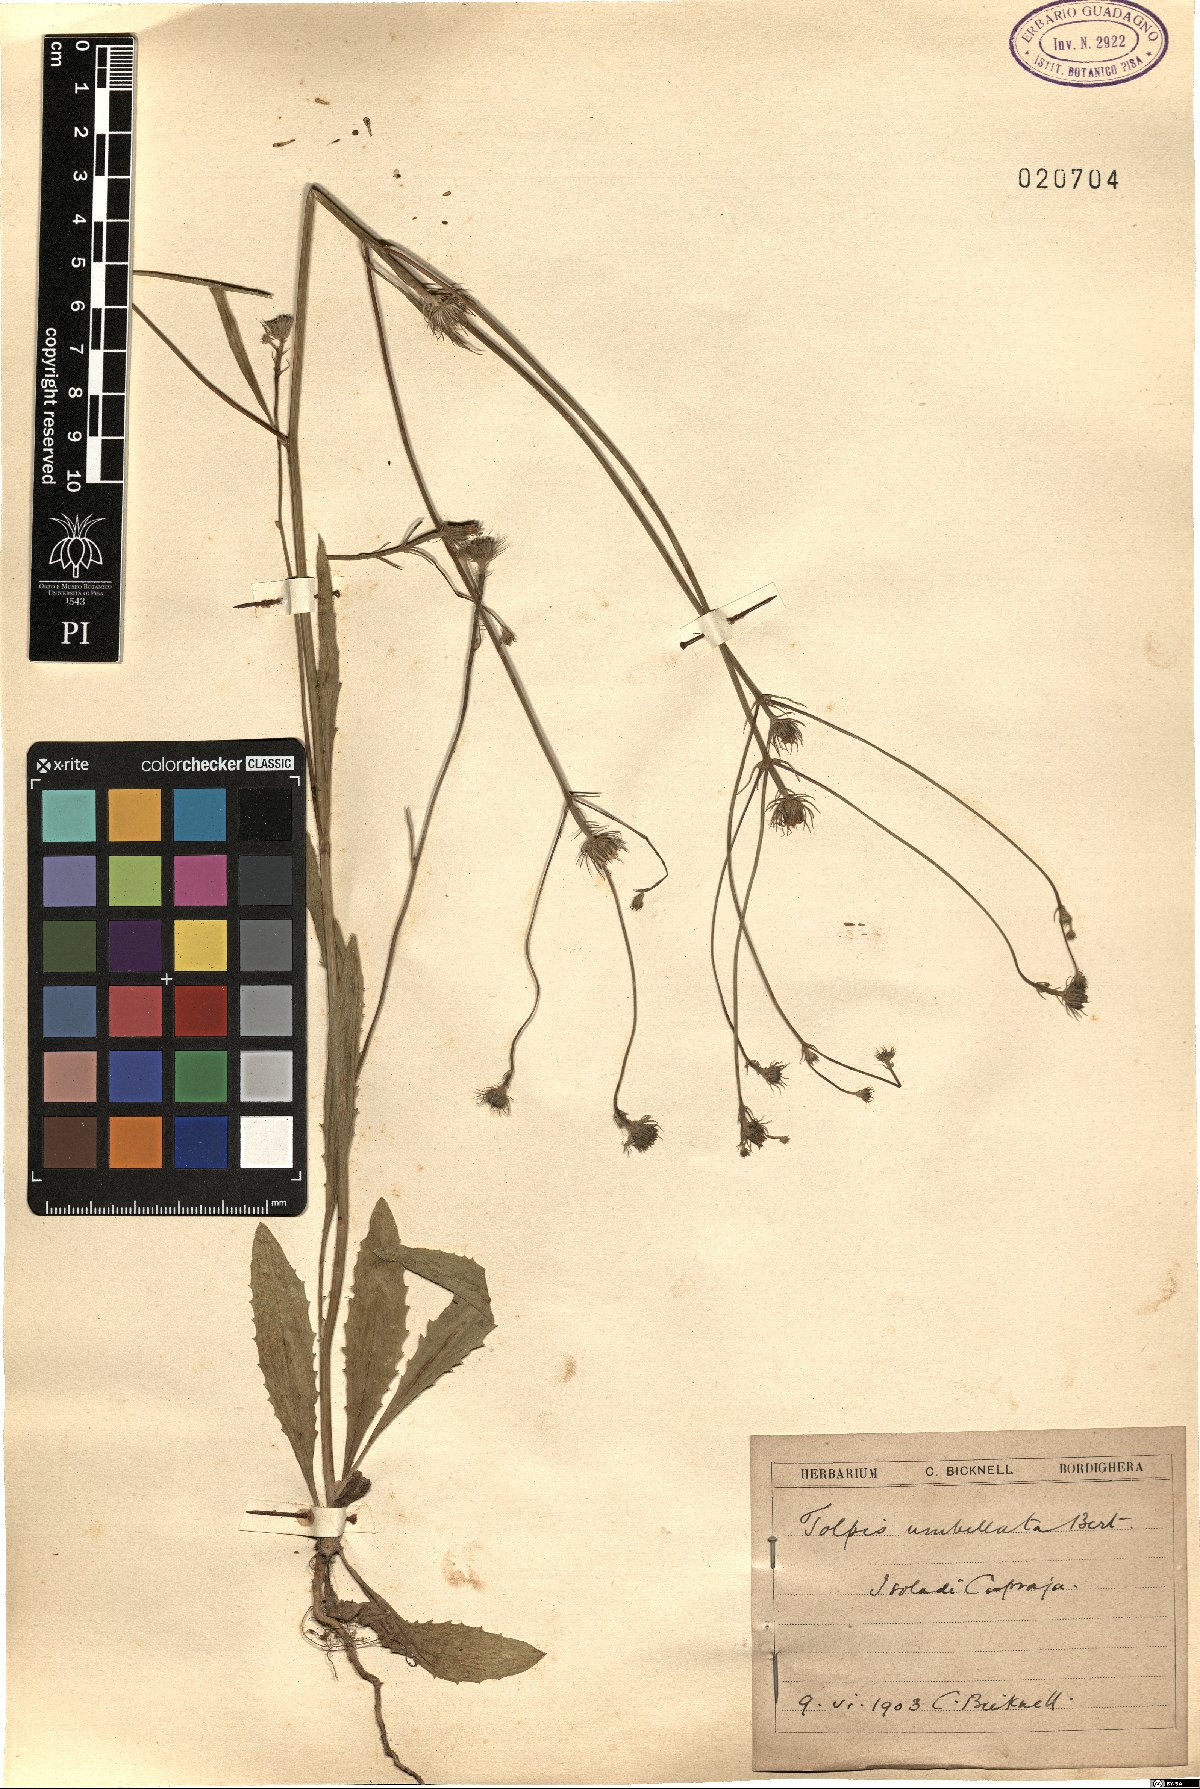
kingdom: Plantae
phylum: Tracheophyta
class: Magnoliopsida
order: Asterales
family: Asteraceae
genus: Tolpis
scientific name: Tolpis umbellata
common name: Yellow hawkweed
